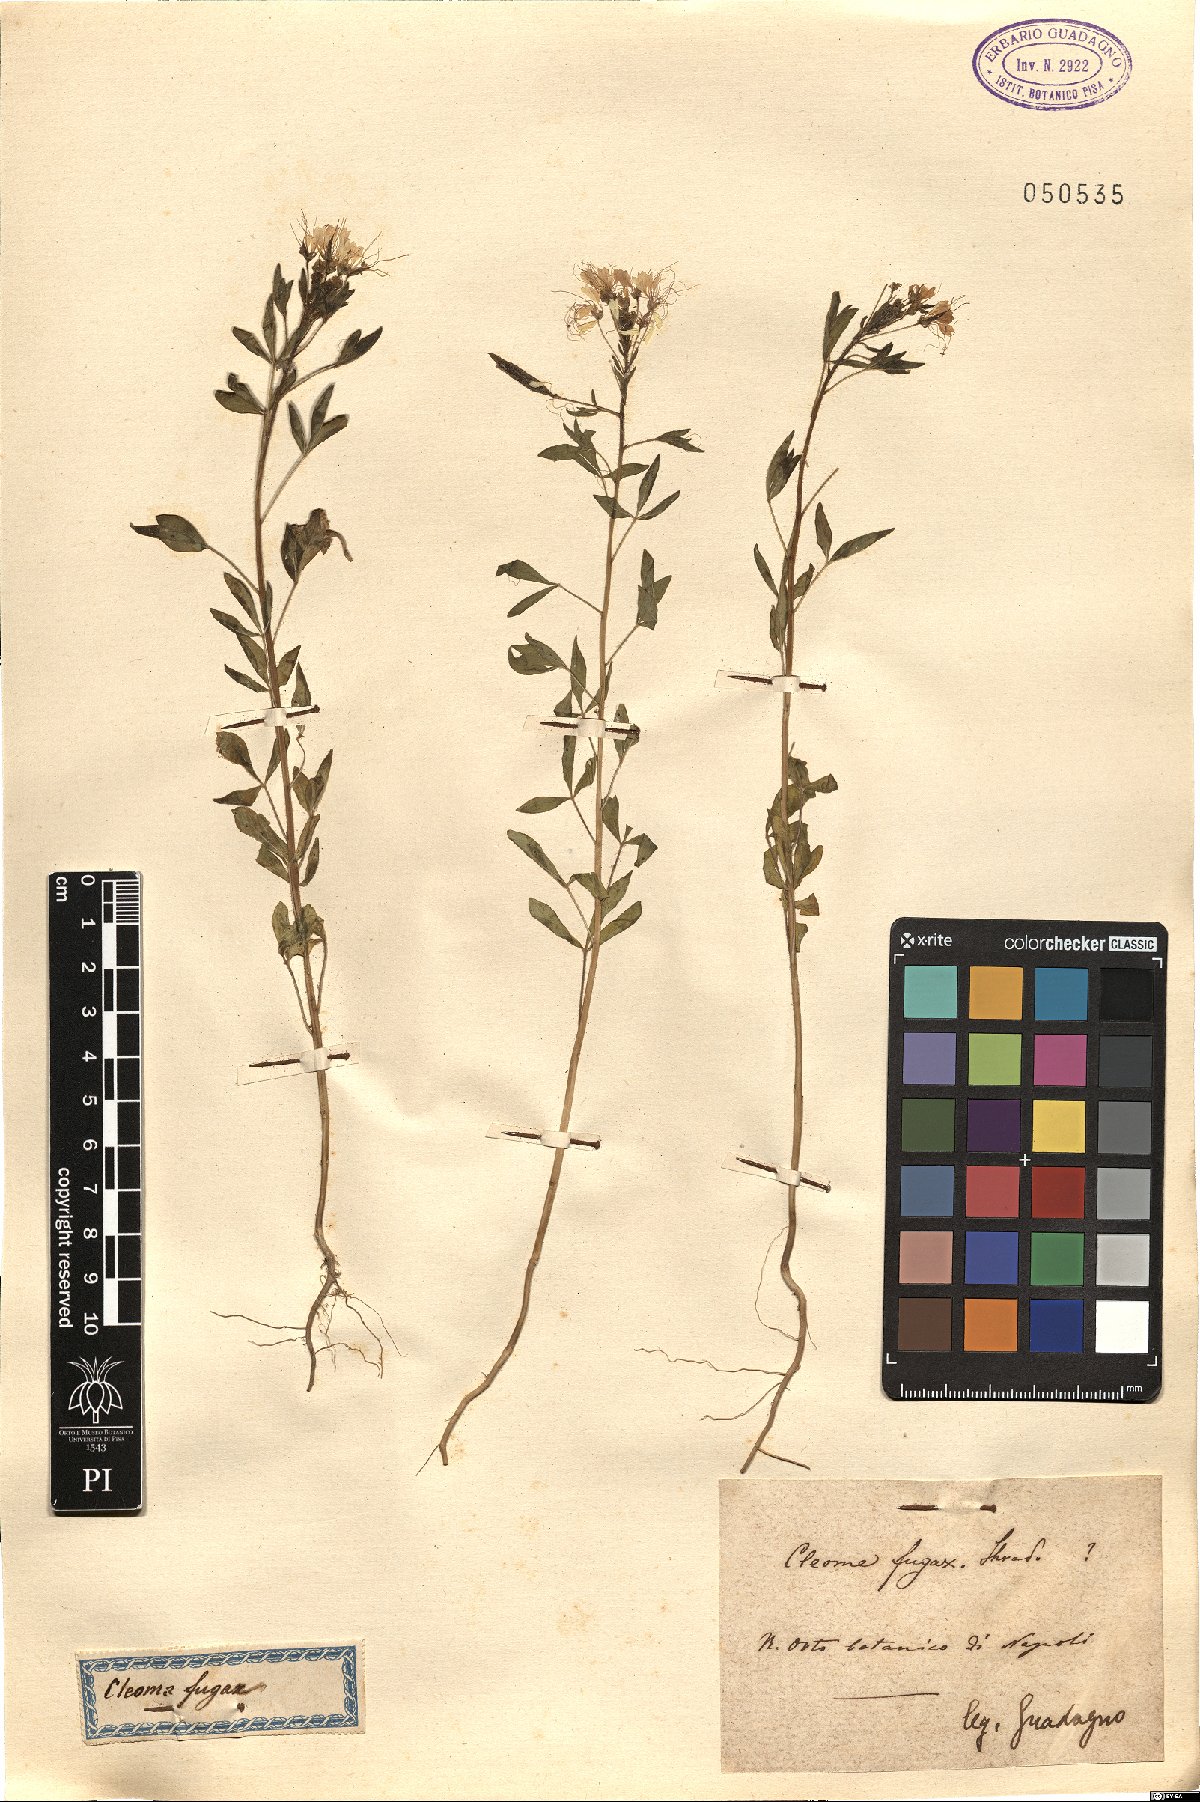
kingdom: Plantae
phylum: Tracheophyta
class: Magnoliopsida
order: Brassicales
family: Cleomaceae
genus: Cleome
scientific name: Cleome fugax
